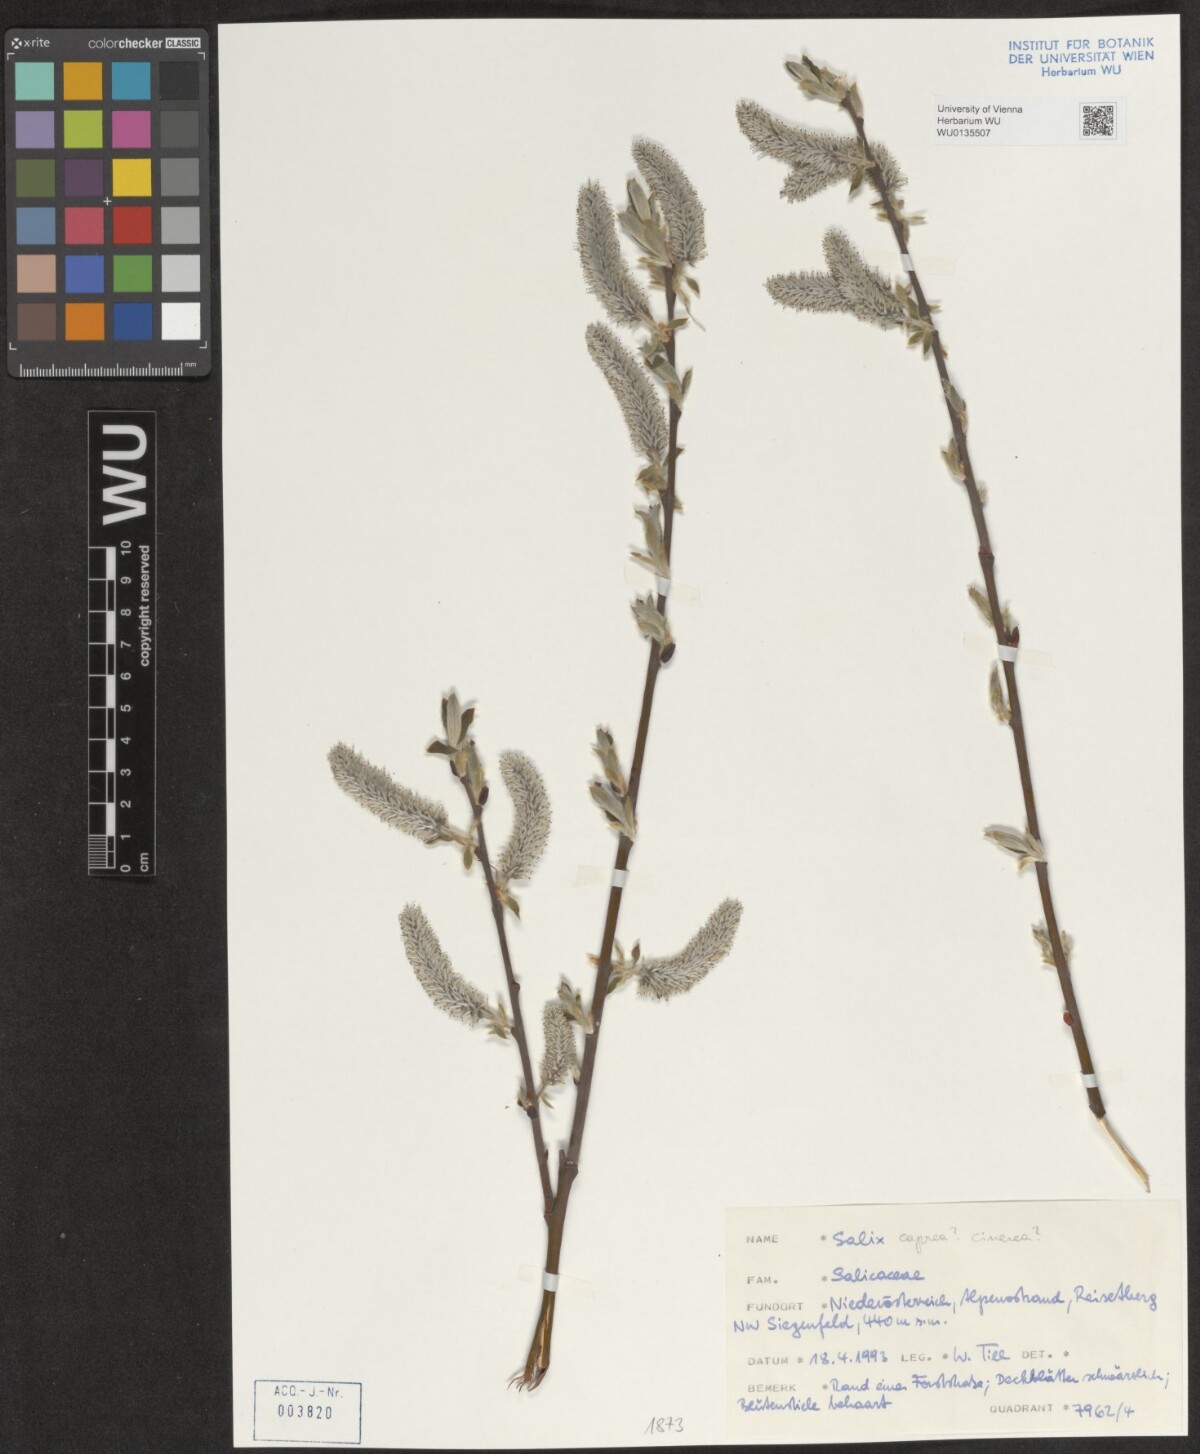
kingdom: Plantae
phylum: Tracheophyta
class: Magnoliopsida
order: Malpighiales
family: Salicaceae
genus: Salix
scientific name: Salix caprea
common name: Goat willow
